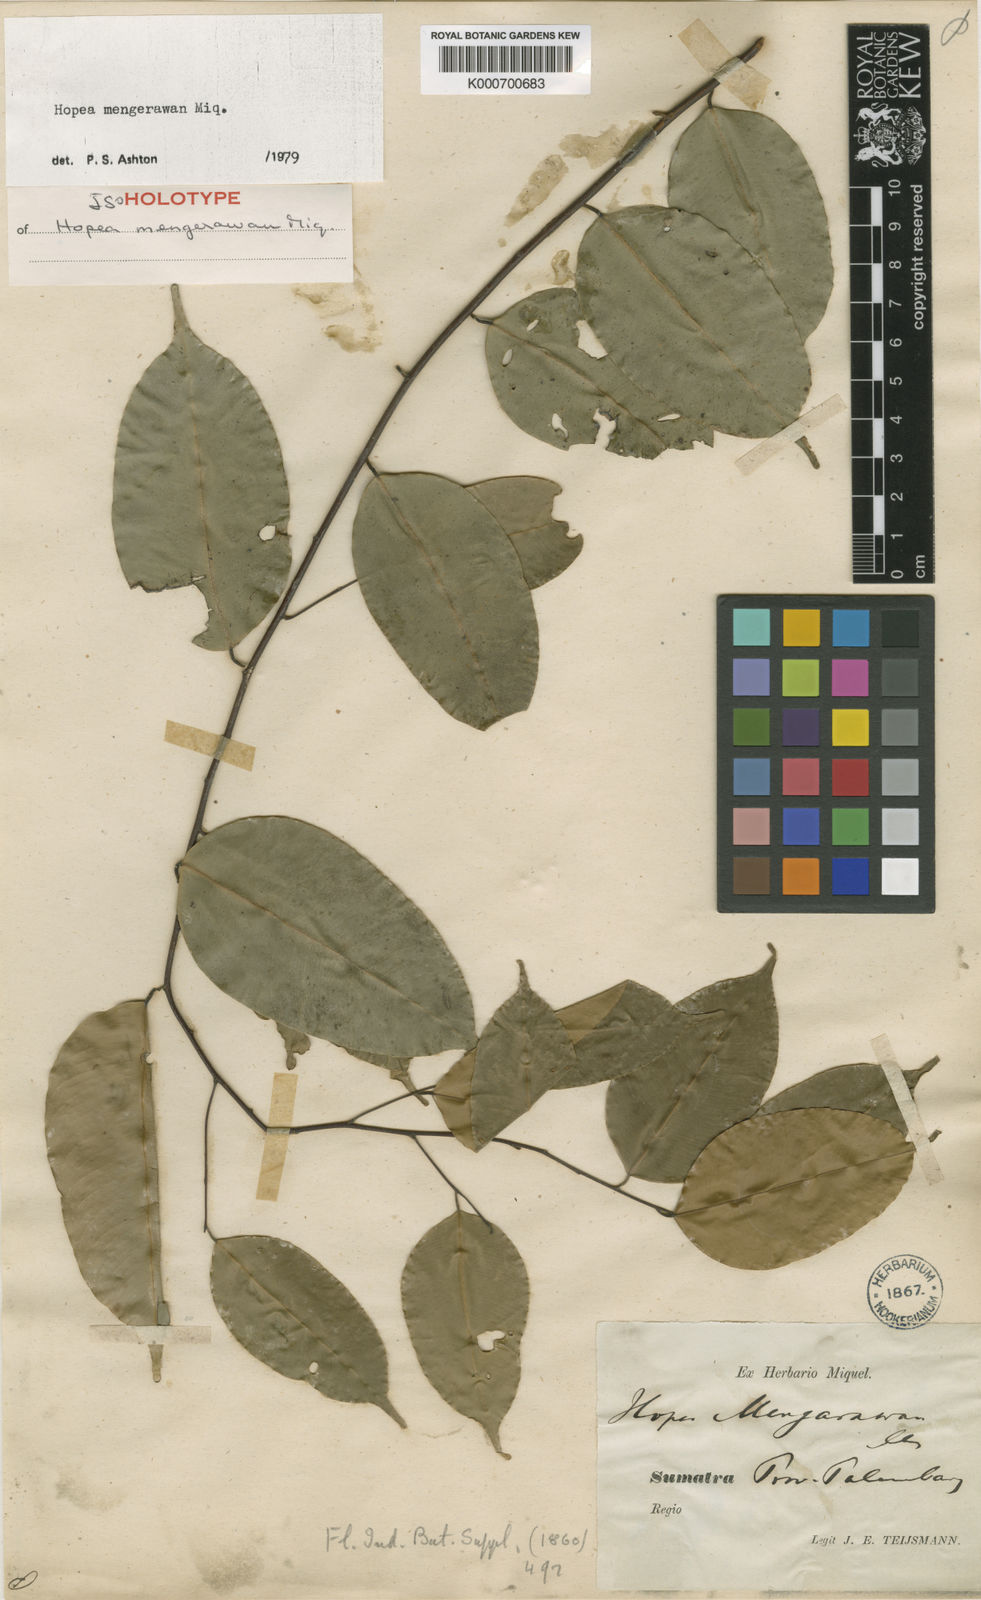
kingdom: Plantae
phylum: Tracheophyta
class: Magnoliopsida
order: Malvales
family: Dipterocarpaceae
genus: Hopea
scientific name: Hopea mengarawan
